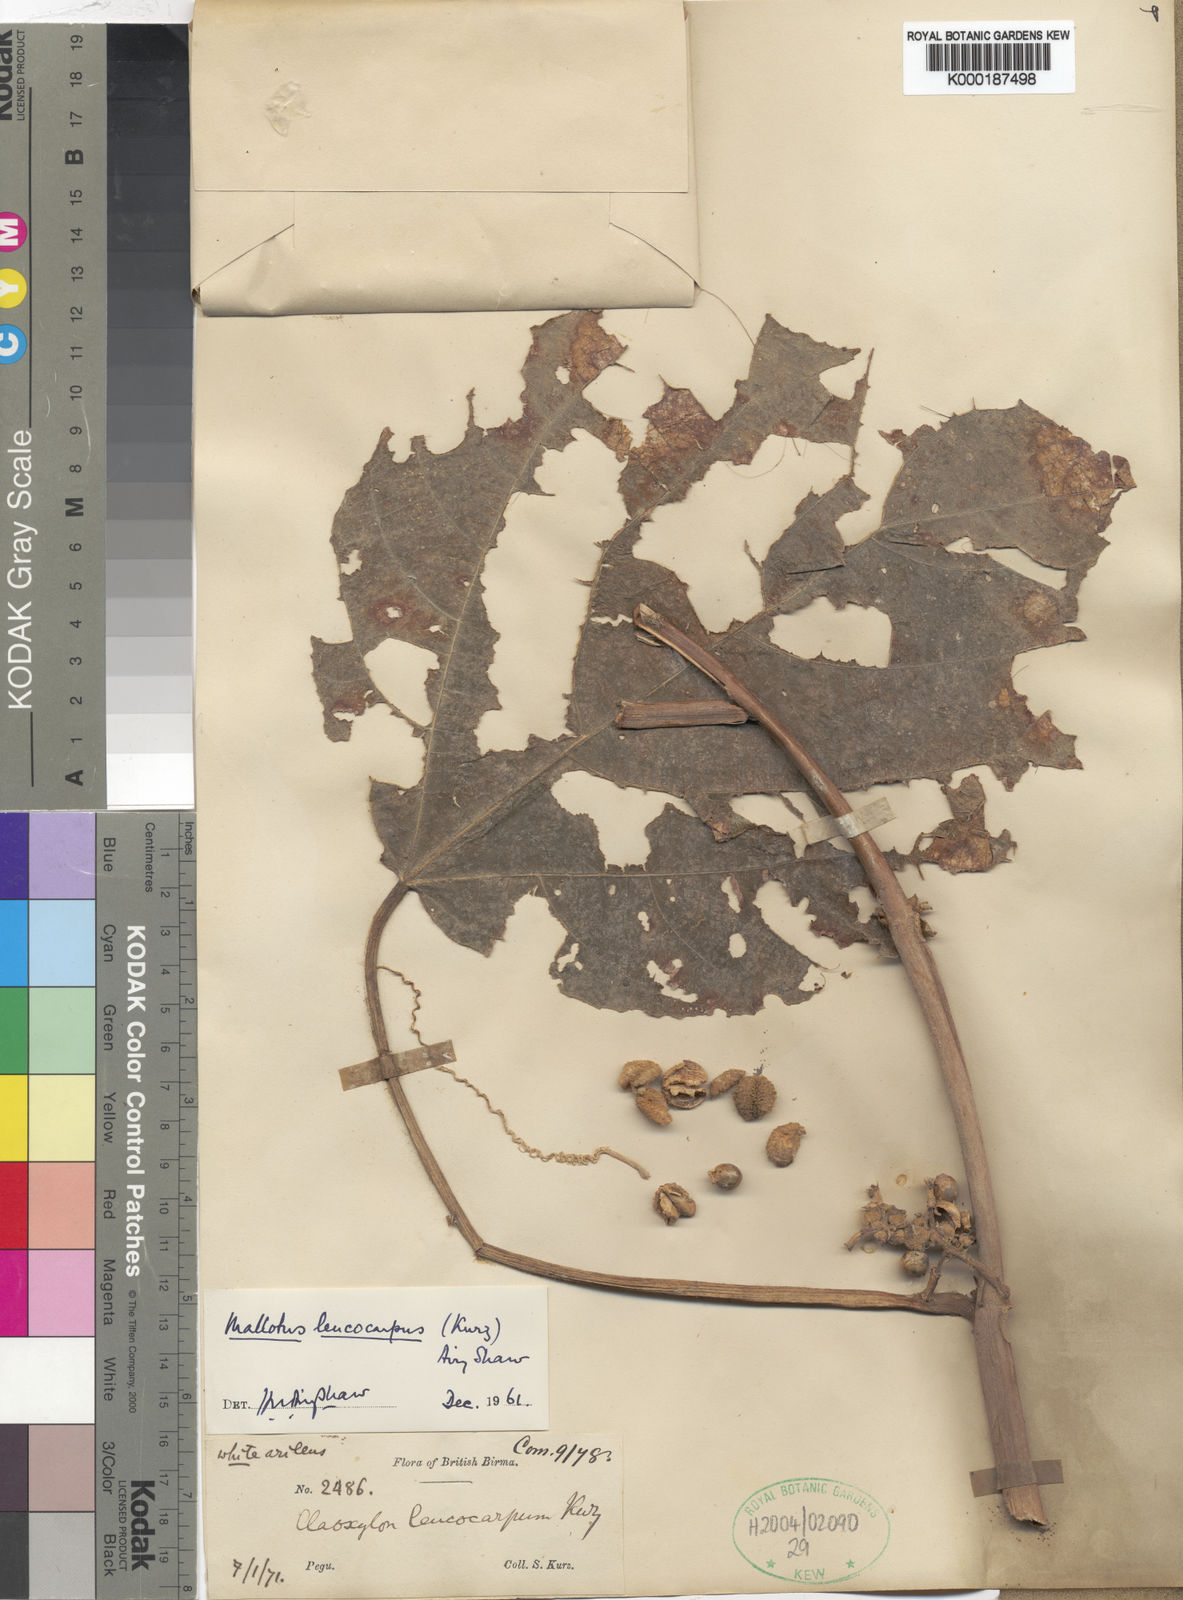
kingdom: Plantae
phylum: Tracheophyta
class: Magnoliopsida
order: Malpighiales
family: Euphorbiaceae
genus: Mallotus
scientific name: Mallotus leucocarpus
